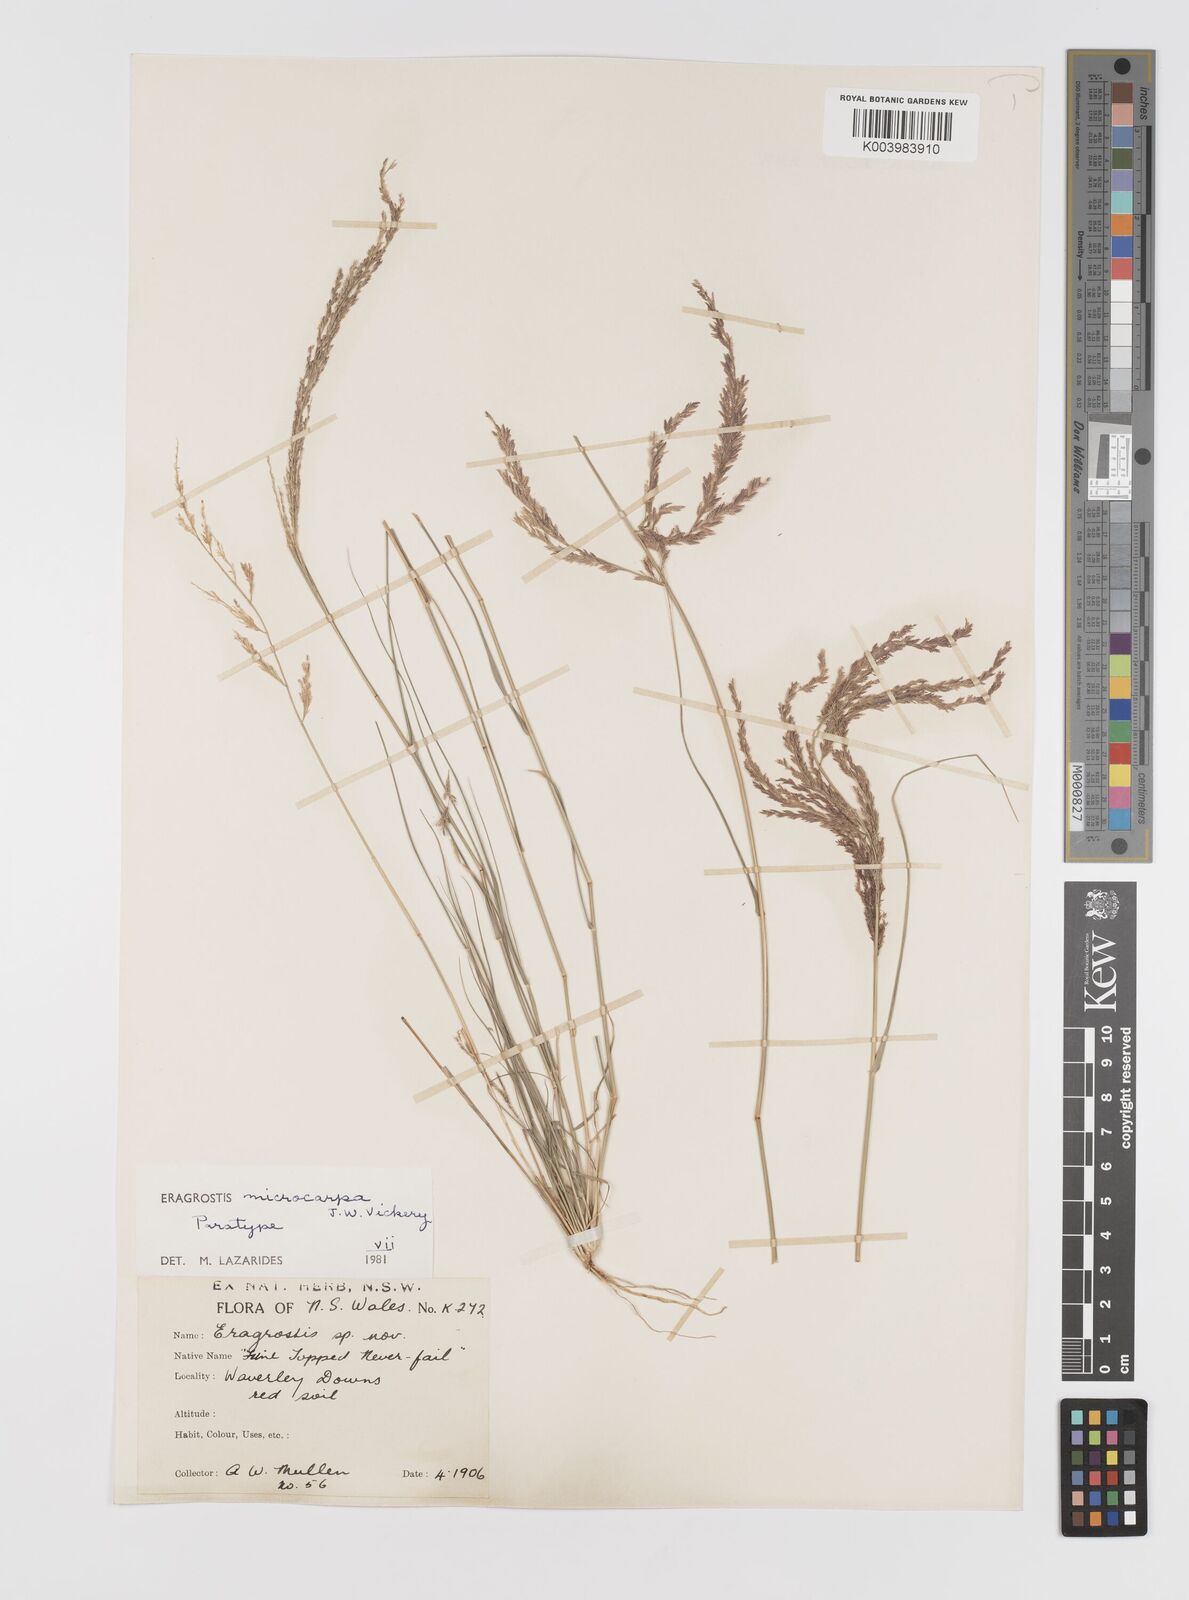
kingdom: Plantae
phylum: Tracheophyta
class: Liliopsida
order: Poales
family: Poaceae
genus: Eragrostis
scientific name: Eragrostis microcarpa
